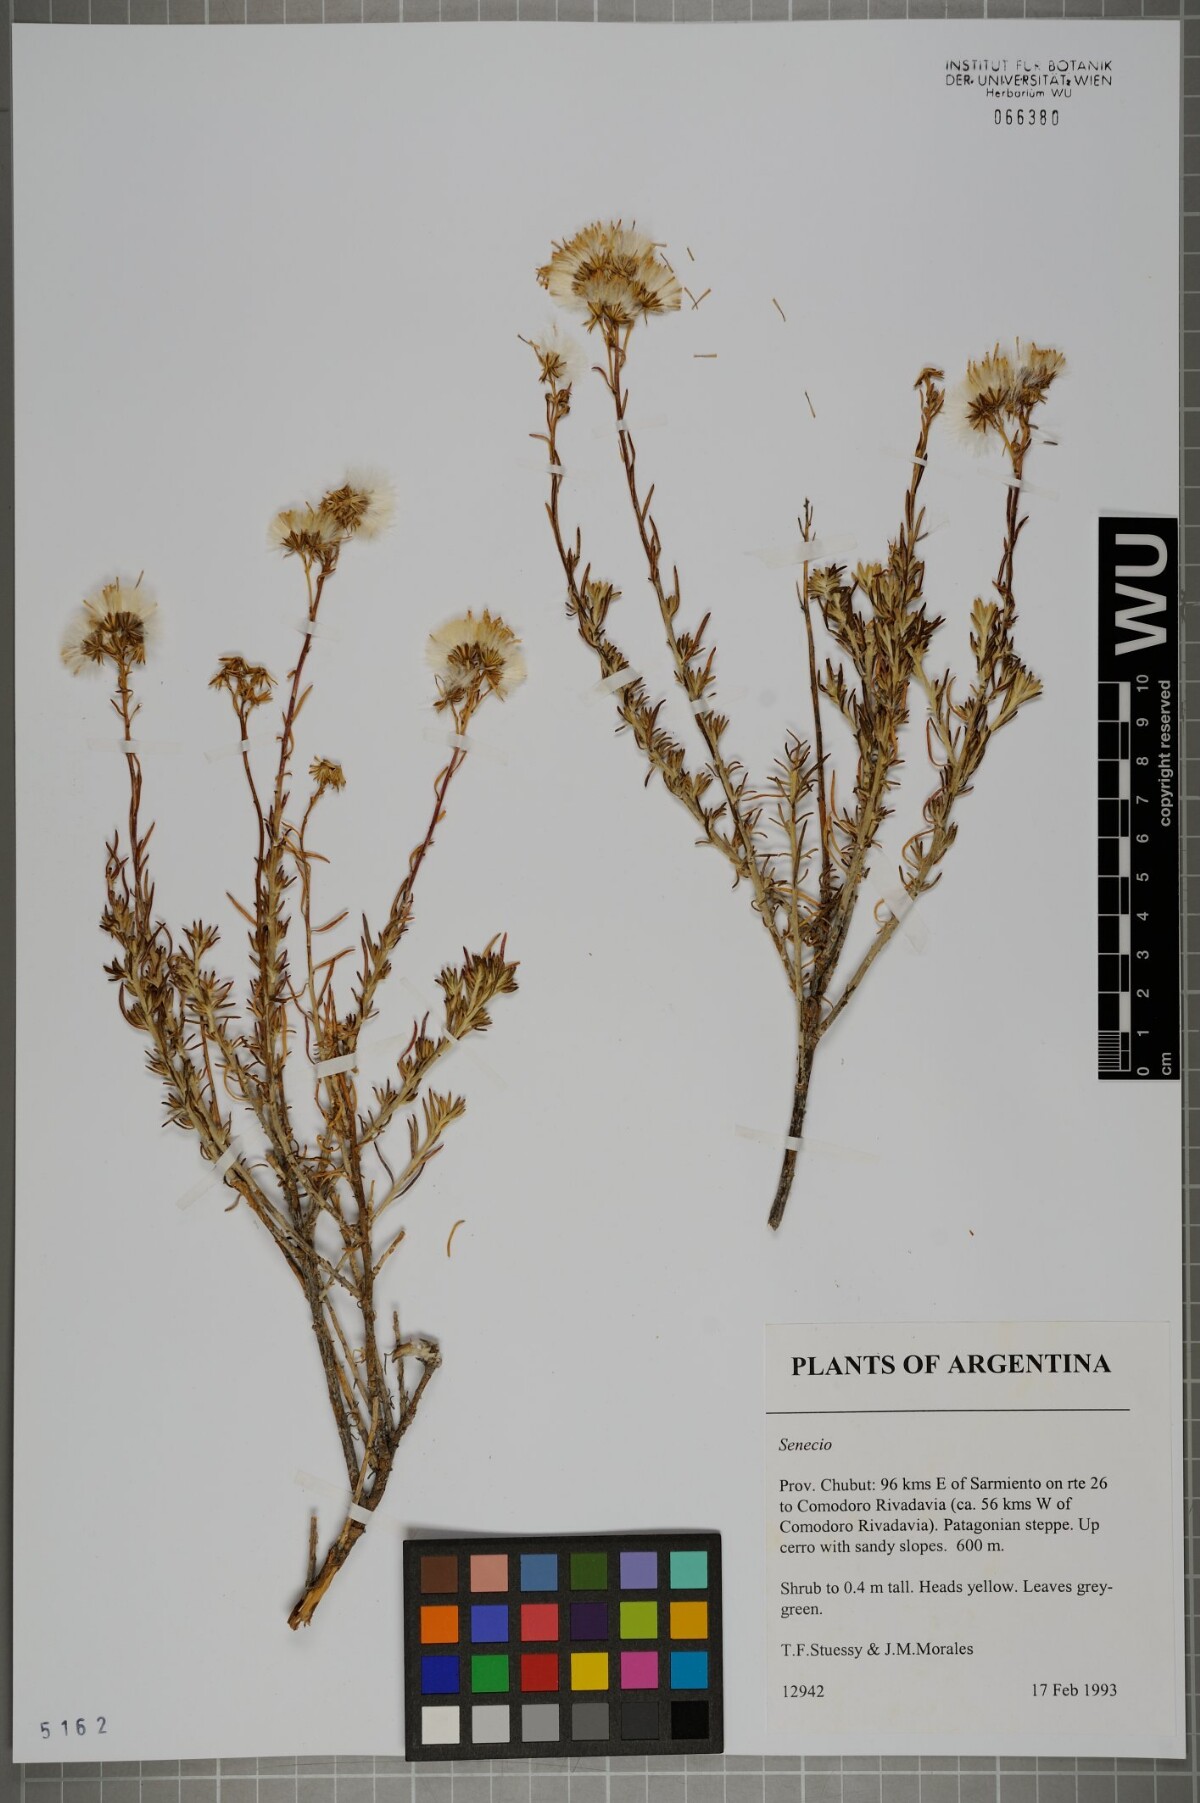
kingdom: Plantae
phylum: Tracheophyta
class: Magnoliopsida
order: Asterales
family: Asteraceae
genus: Senecio
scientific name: Senecio
